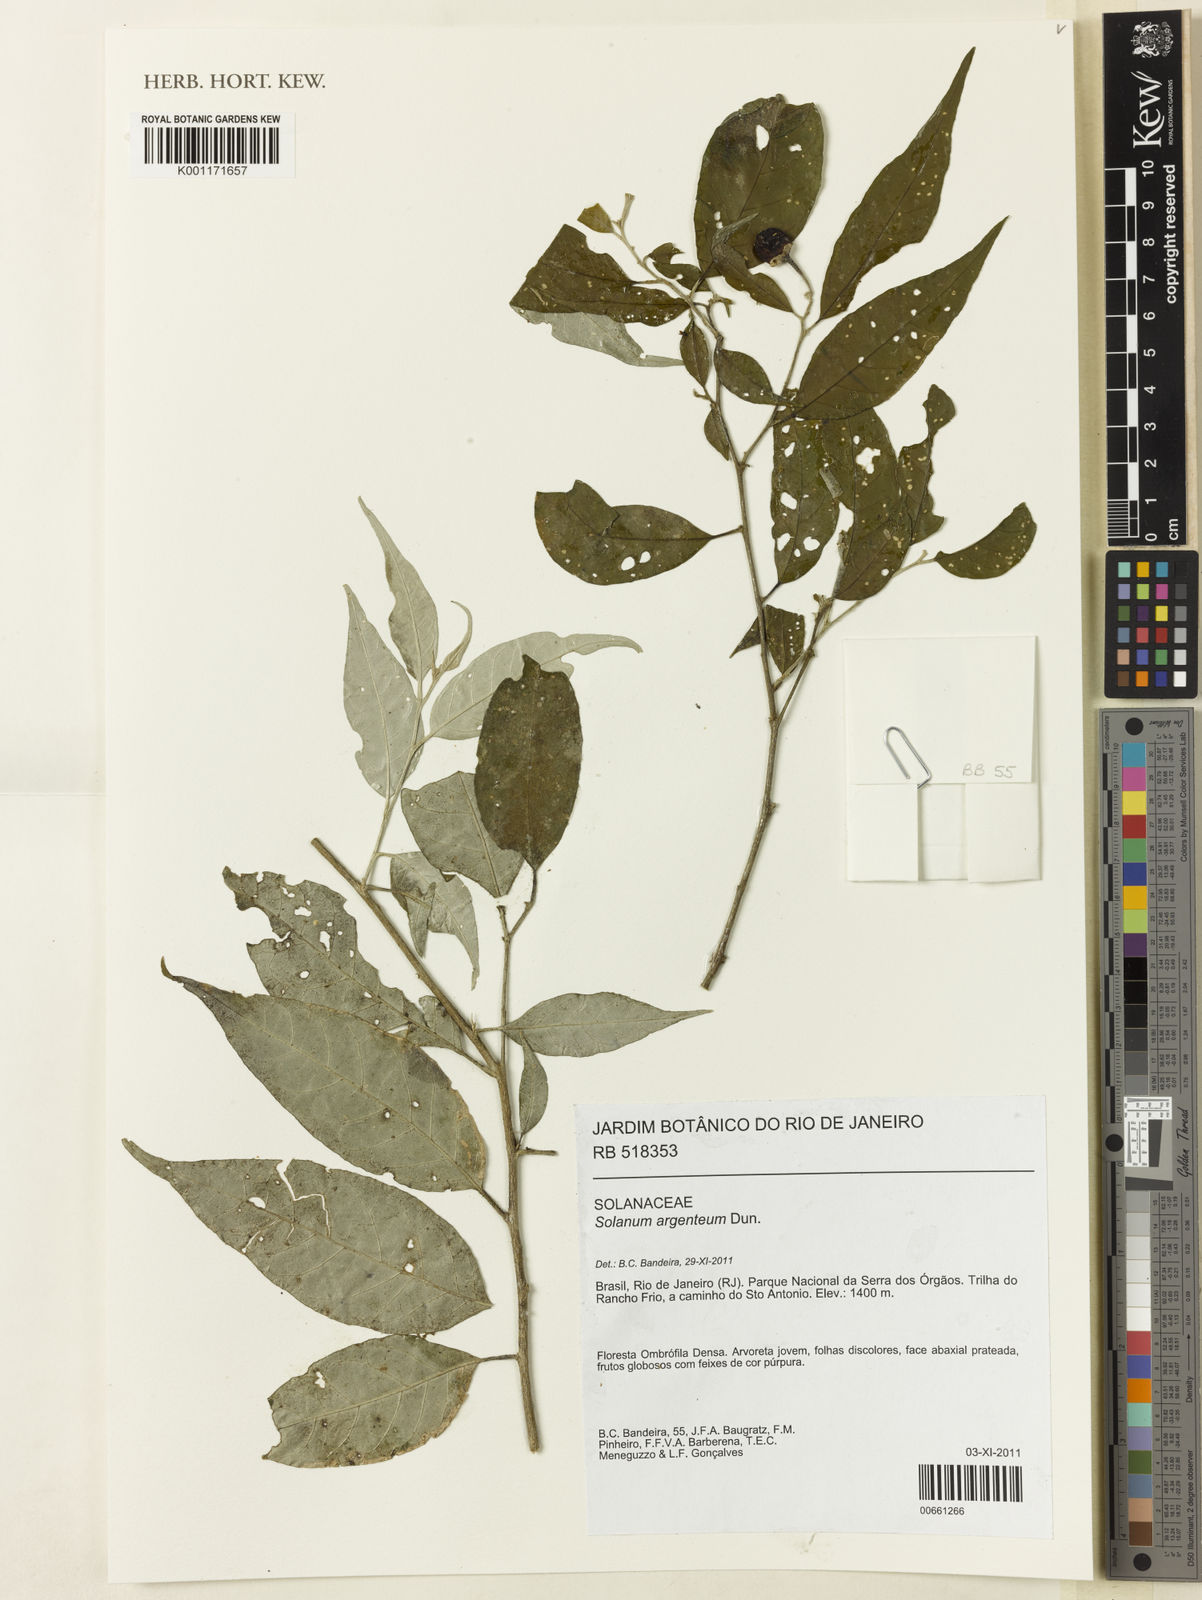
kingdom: Plantae
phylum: Tracheophyta
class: Magnoliopsida
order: Solanales
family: Solanaceae
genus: Solanum
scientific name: Solanum swartzianum
